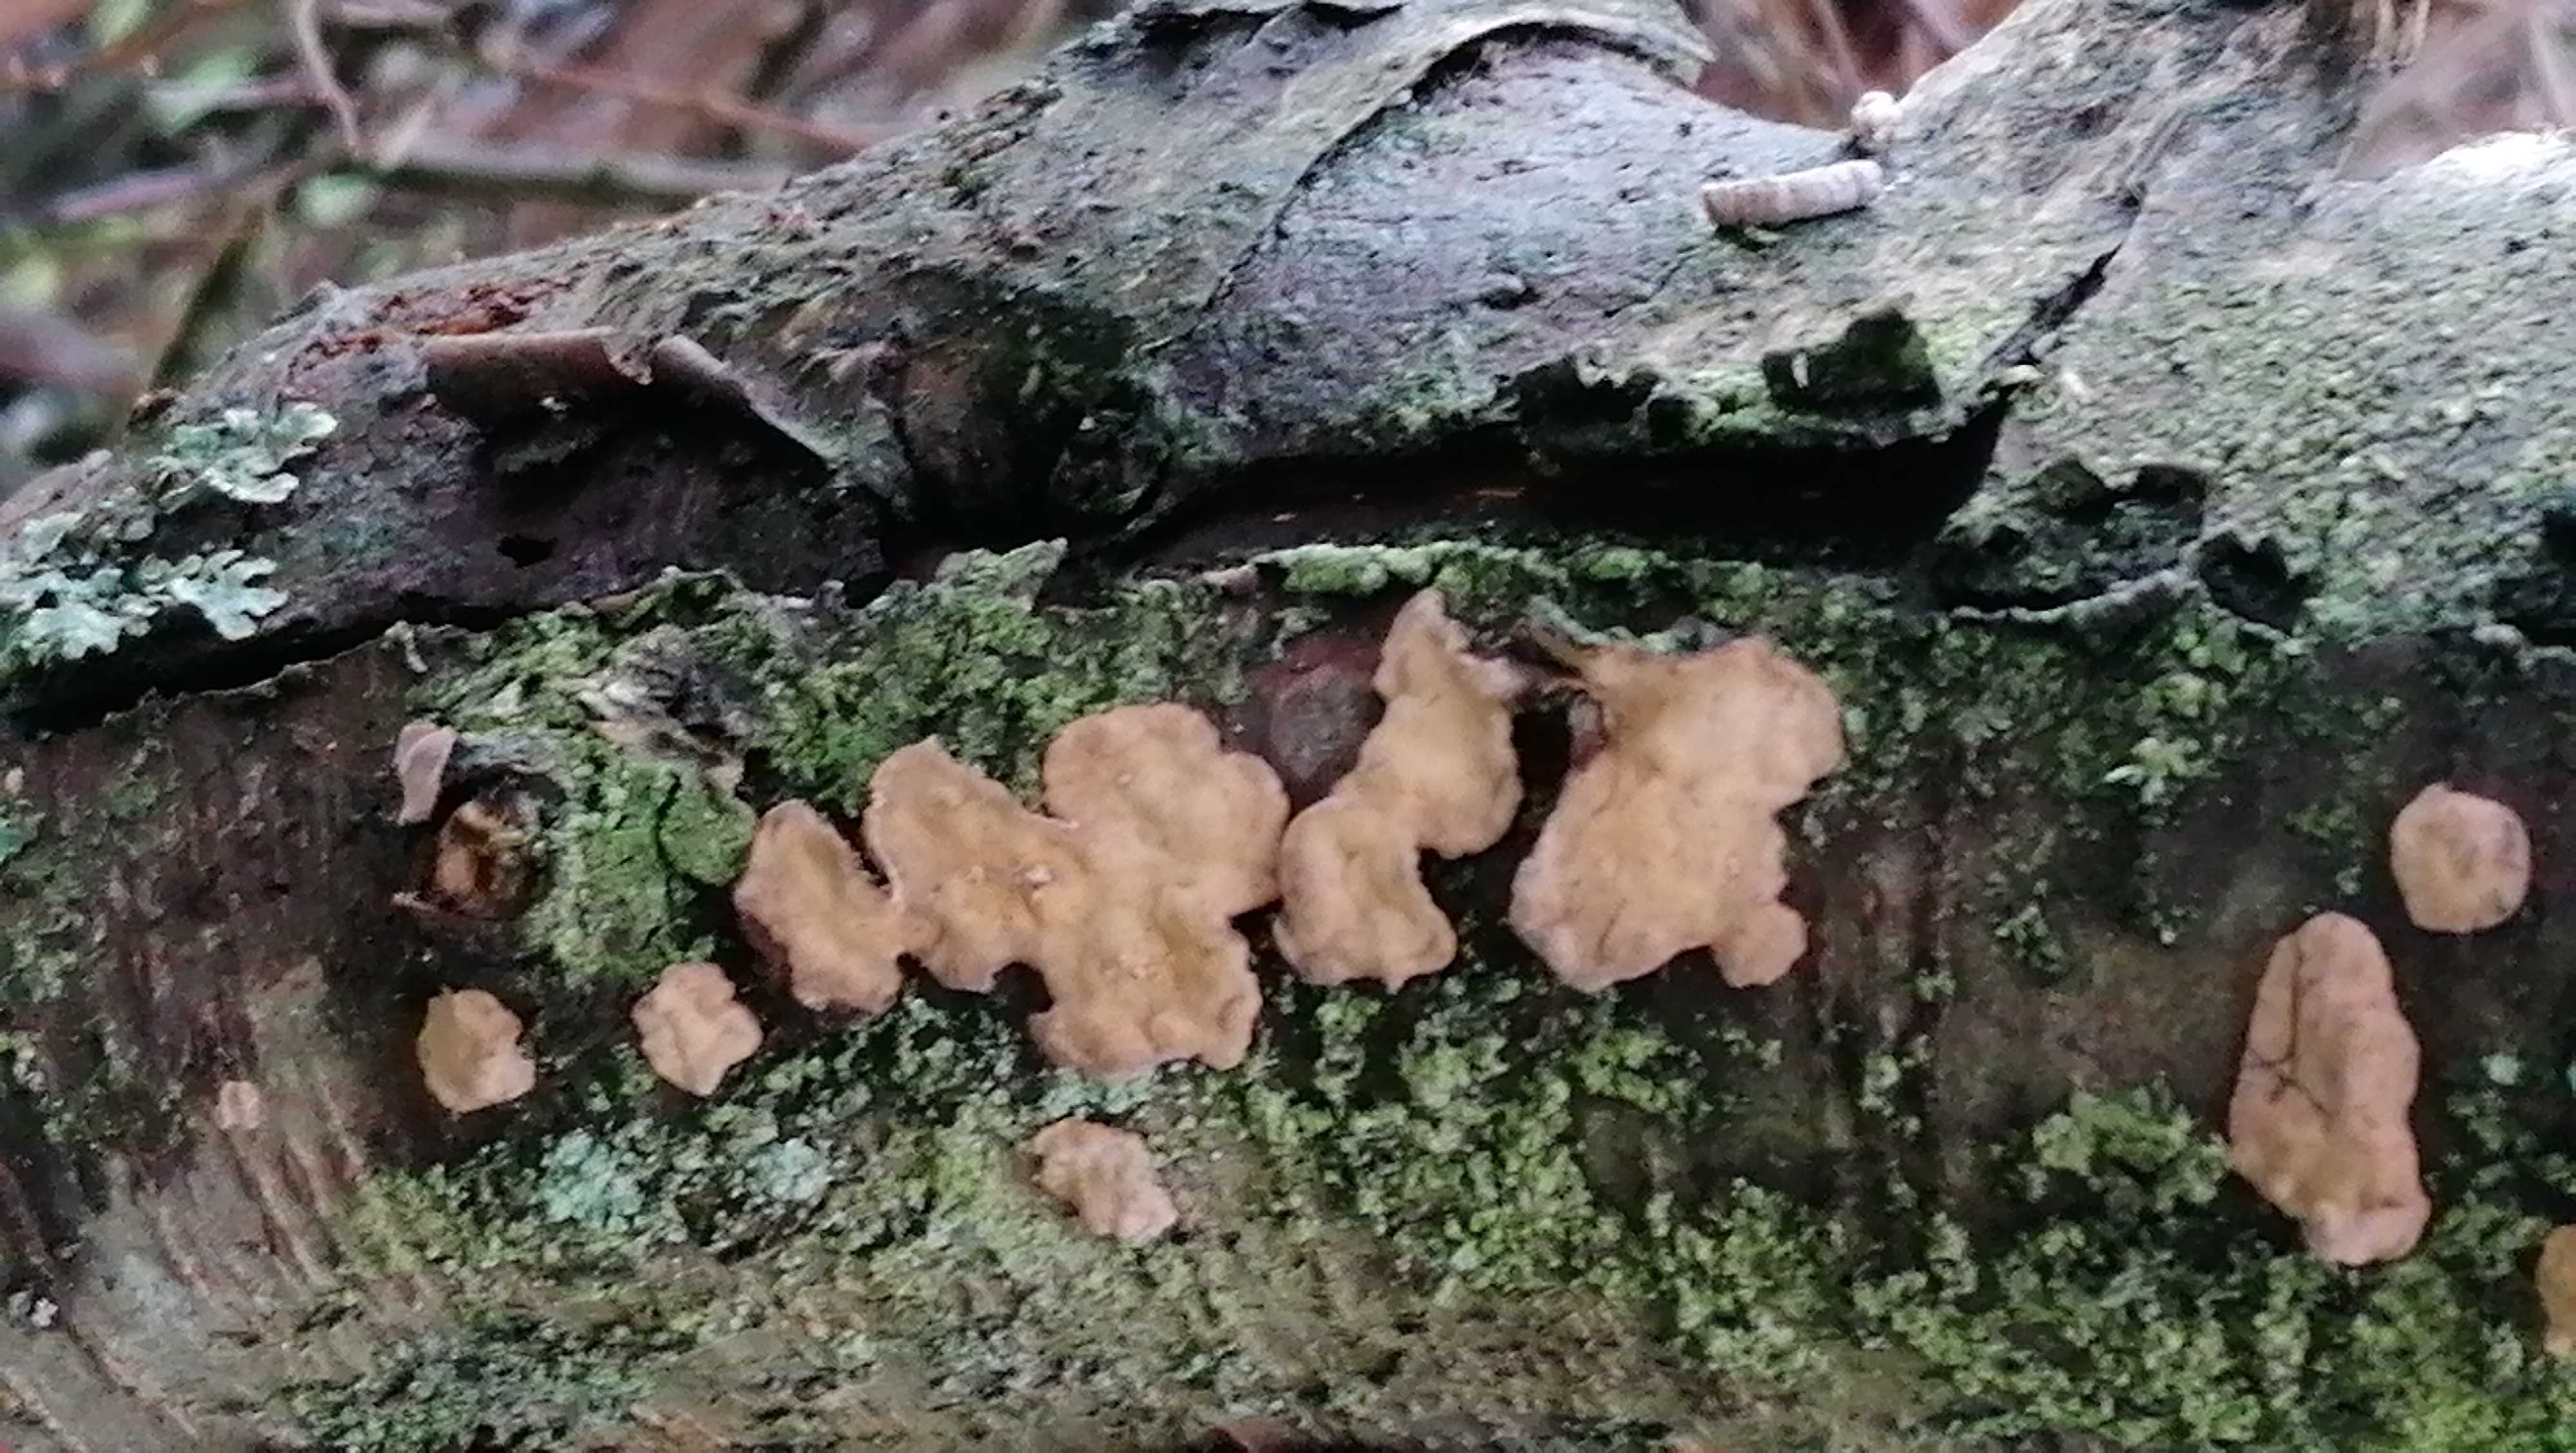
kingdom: Fungi
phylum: Basidiomycota
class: Agaricomycetes
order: Russulales
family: Stereaceae
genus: Stereum
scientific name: Stereum rugosum
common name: rynket lædersvamp
